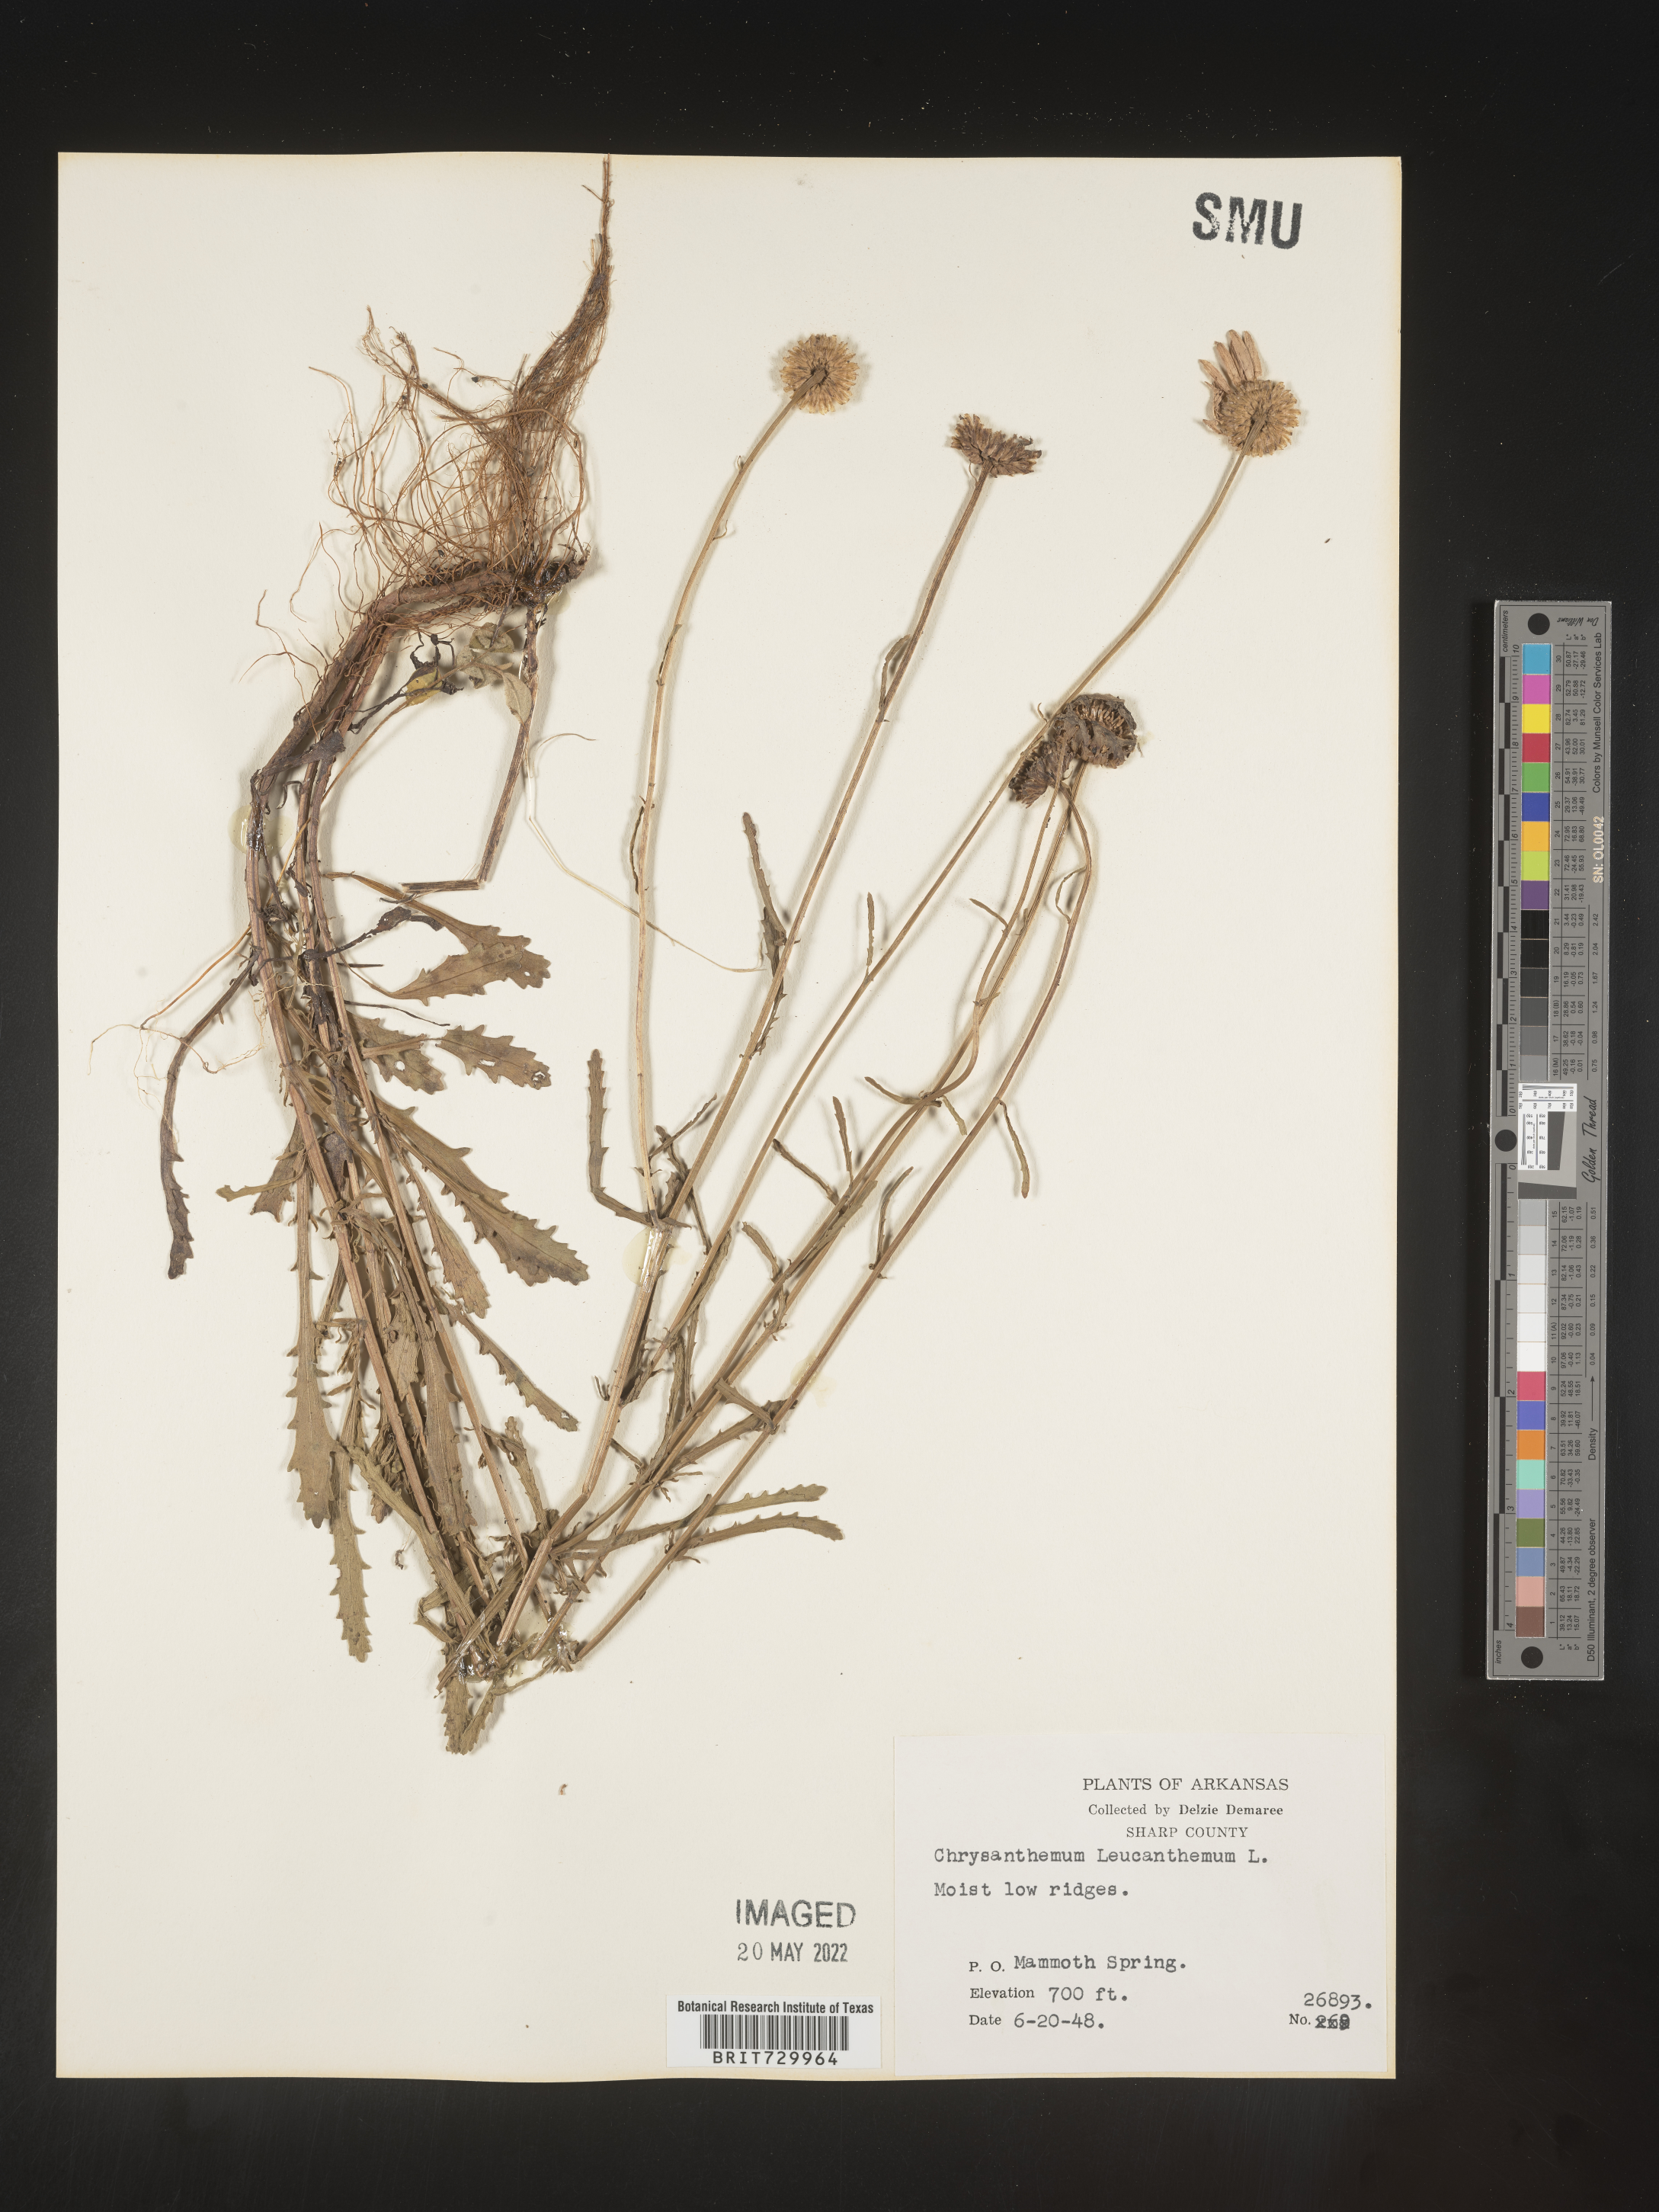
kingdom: Plantae
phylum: Tracheophyta
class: Magnoliopsida
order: Asterales
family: Asteraceae
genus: Leucanthemum
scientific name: Leucanthemum vulgare
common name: Oxeye daisy
